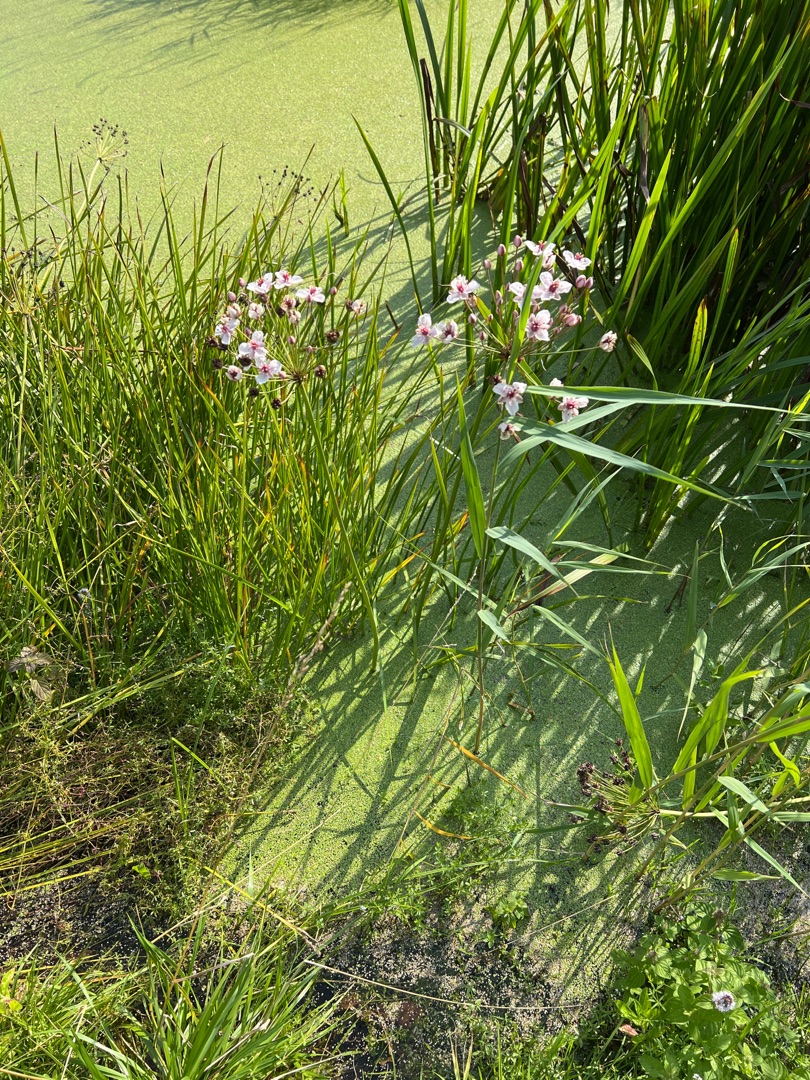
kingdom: Plantae
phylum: Tracheophyta
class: Liliopsida
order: Alismatales
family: Butomaceae
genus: Butomus
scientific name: Butomus umbellatus
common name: Brudelys
